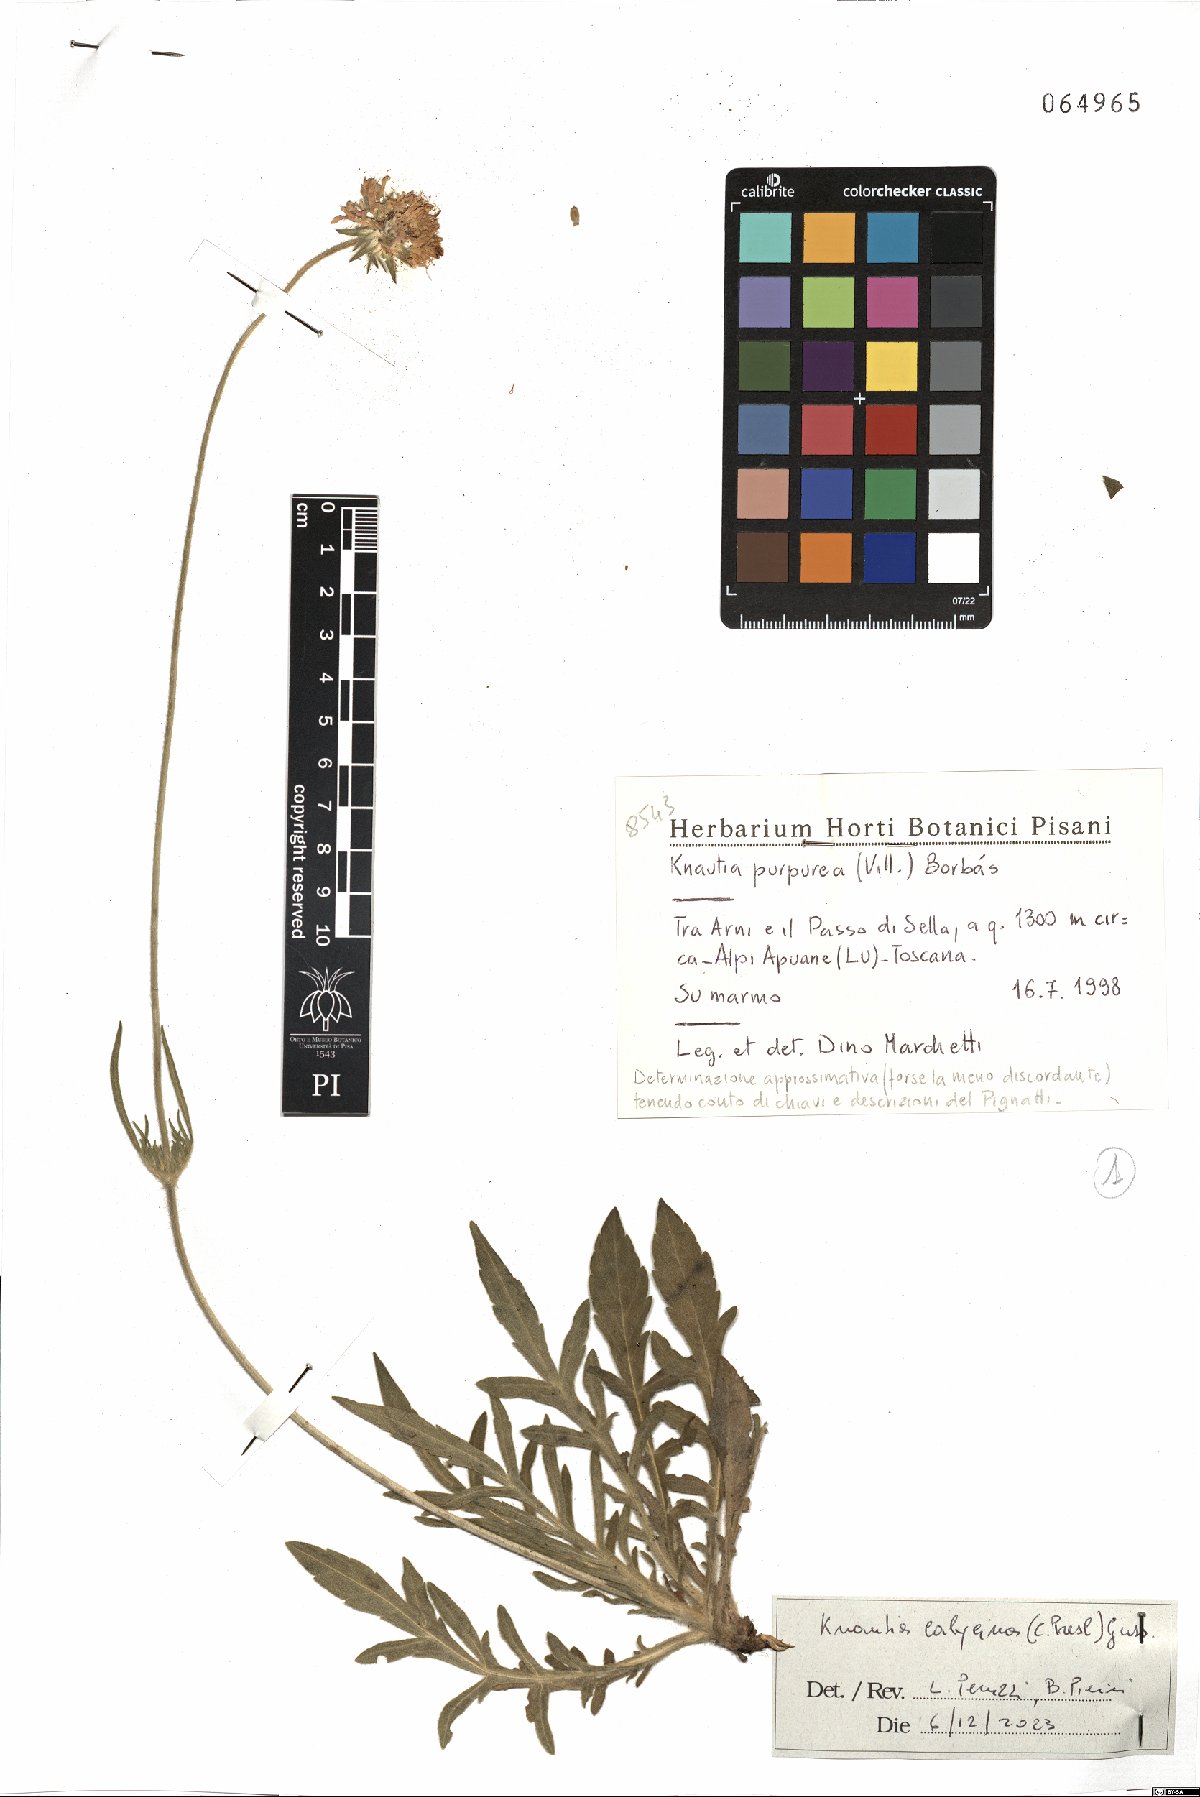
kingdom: Plantae
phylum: Tracheophyta
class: Magnoliopsida
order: Dipsacales
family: Caprifoliaceae
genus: Knautia
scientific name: Knautia calycina
